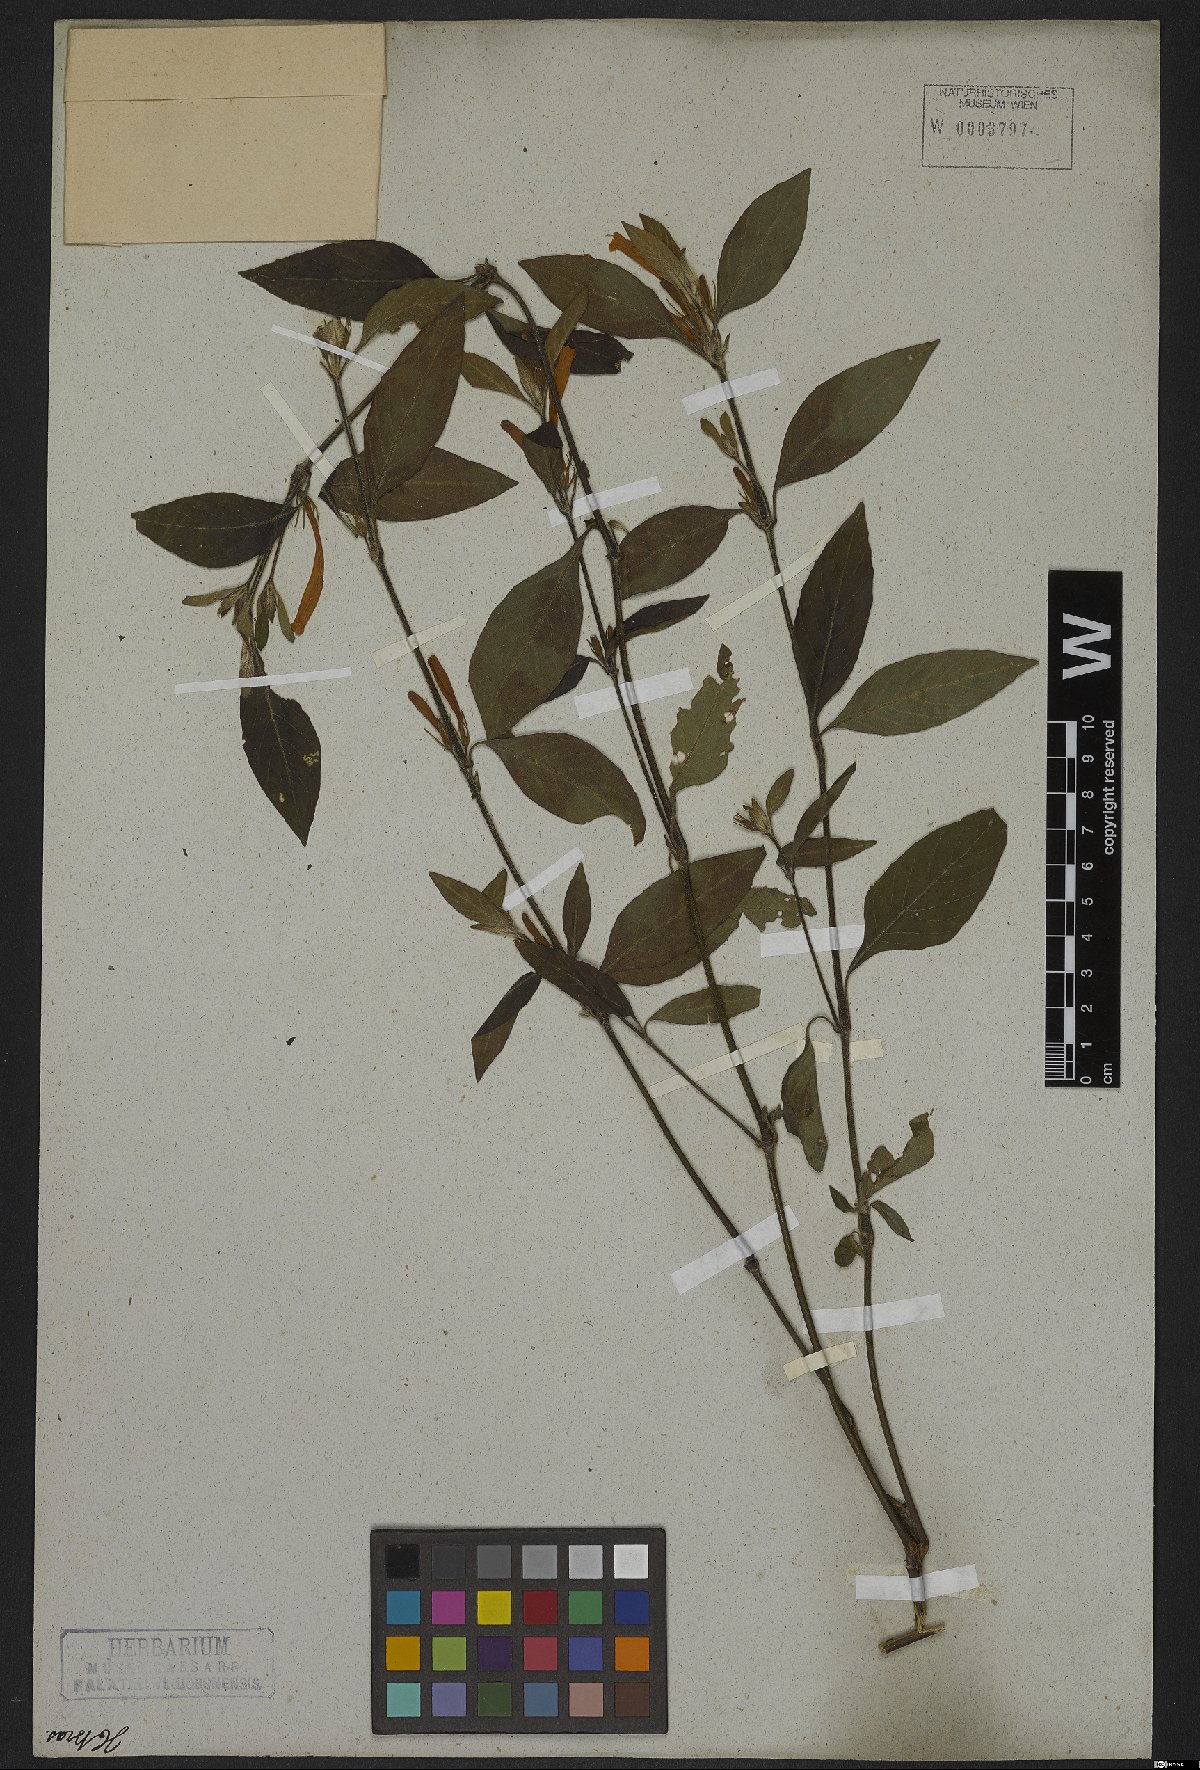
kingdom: Plantae
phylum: Tracheophyta
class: Magnoliopsida
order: Lamiales
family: Acanthaceae
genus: Strobilanthes
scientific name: Strobilanthes
